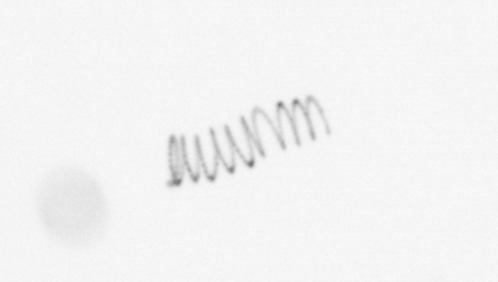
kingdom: Chromista
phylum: Ochrophyta
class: Bacillariophyceae
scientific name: Bacillariophyceae
